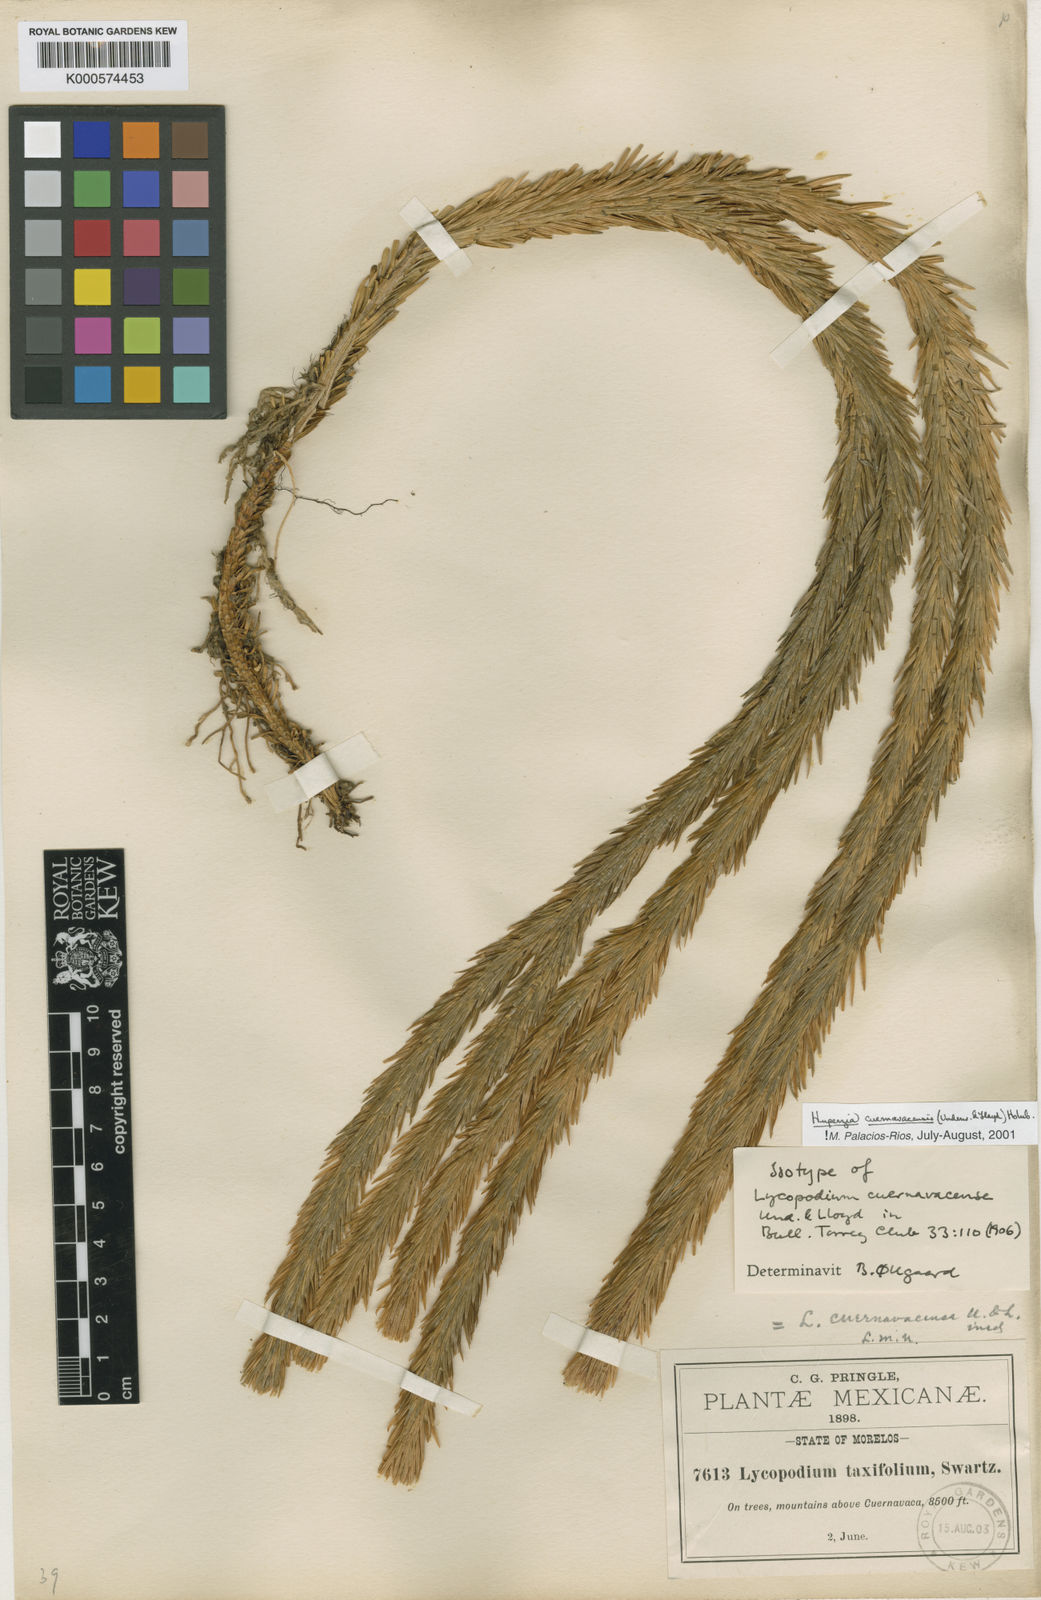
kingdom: Plantae
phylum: Tracheophyta
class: Lycopodiopsida
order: Lycopodiales
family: Lycopodiaceae
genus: Phlegmariurus
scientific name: Phlegmariurus cuernavacensis
